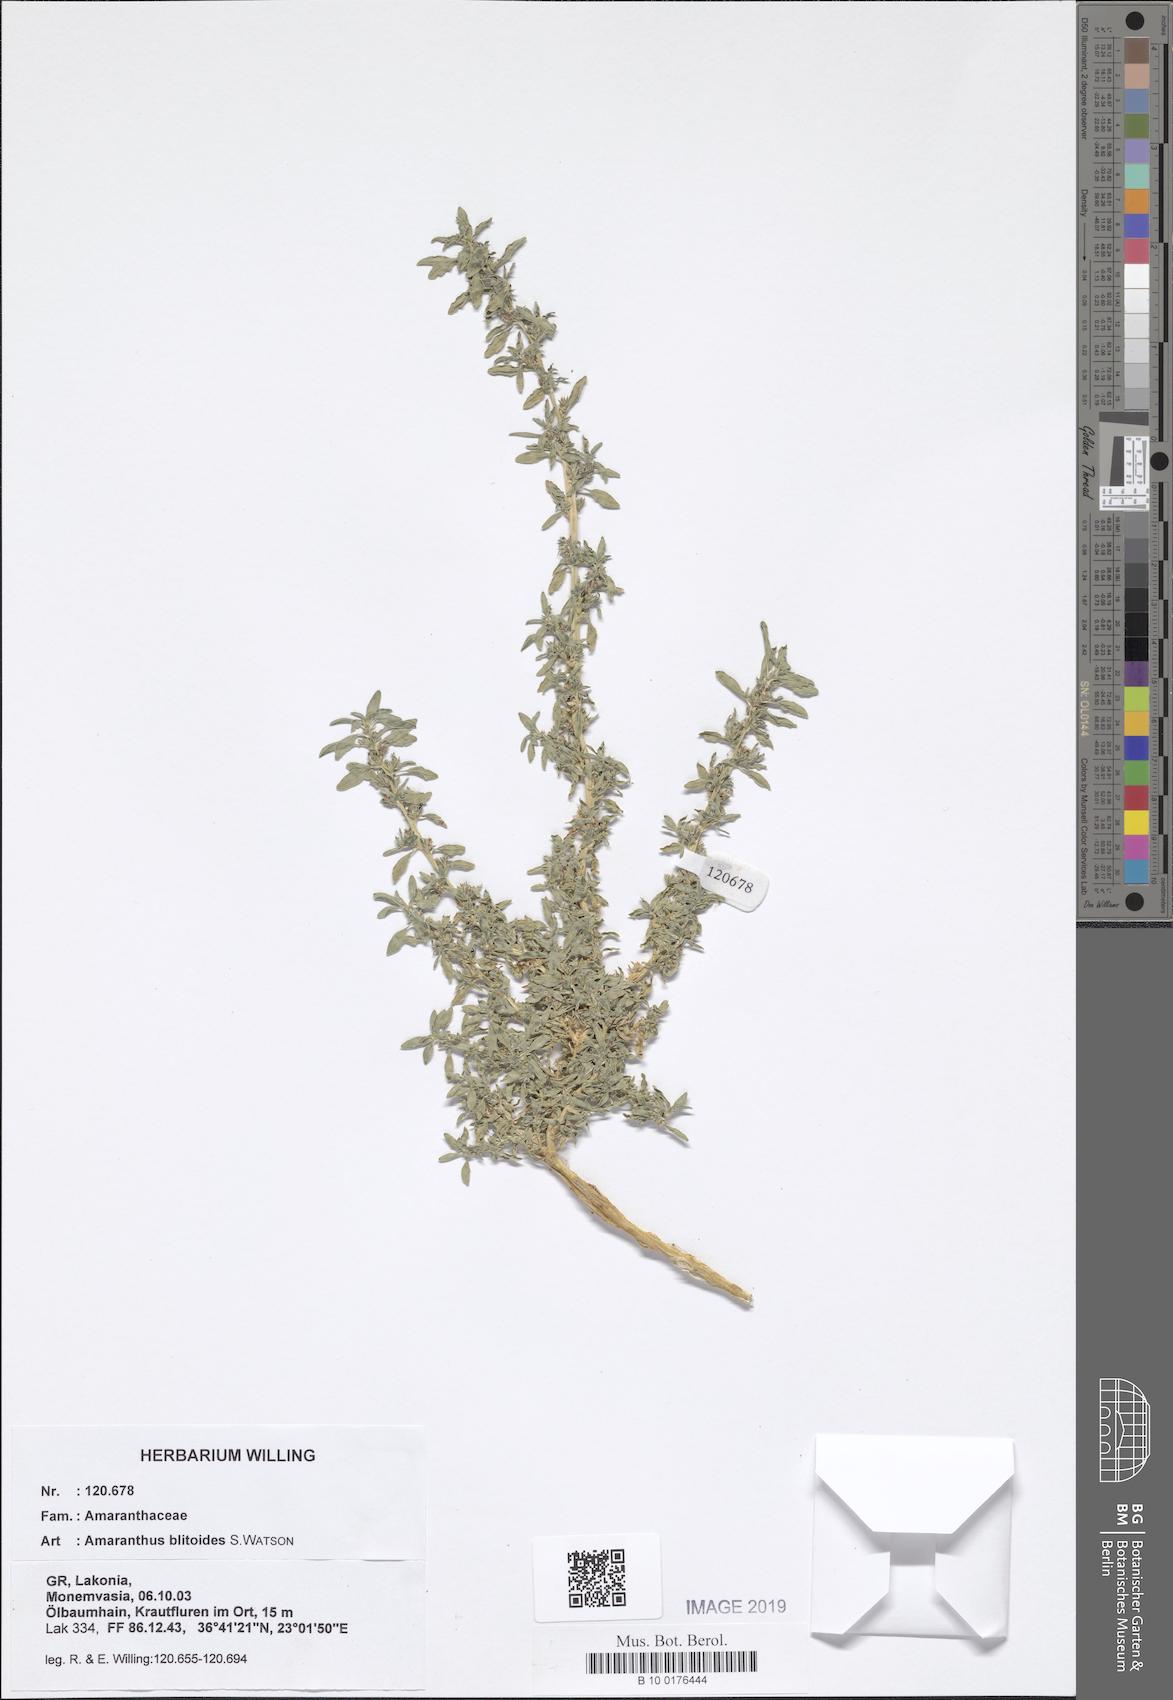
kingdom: Plantae
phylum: Tracheophyta
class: Magnoliopsida
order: Caryophyllales
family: Amaranthaceae
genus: Amaranthus
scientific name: Amaranthus blitoides
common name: Prostrate pigweed
